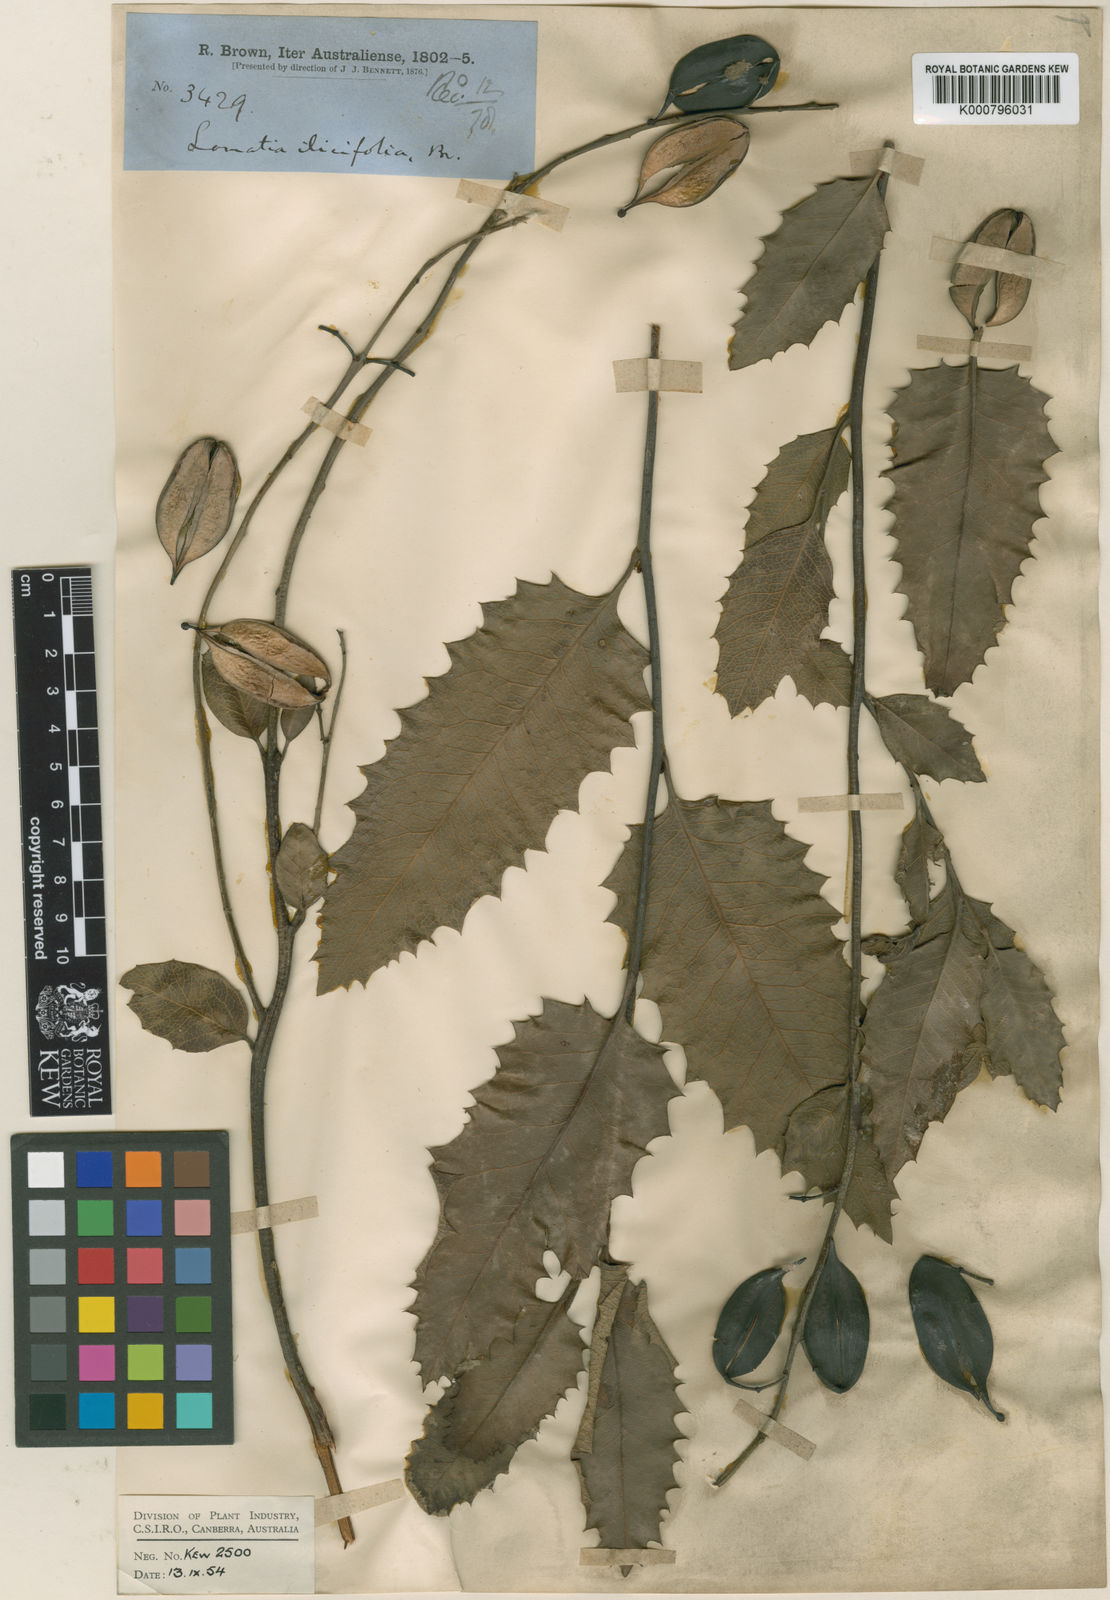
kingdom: Plantae
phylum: Tracheophyta
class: Magnoliopsida
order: Proteales
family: Proteaceae
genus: Lomatia
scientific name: Lomatia ilicifolia
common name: Native-holly
